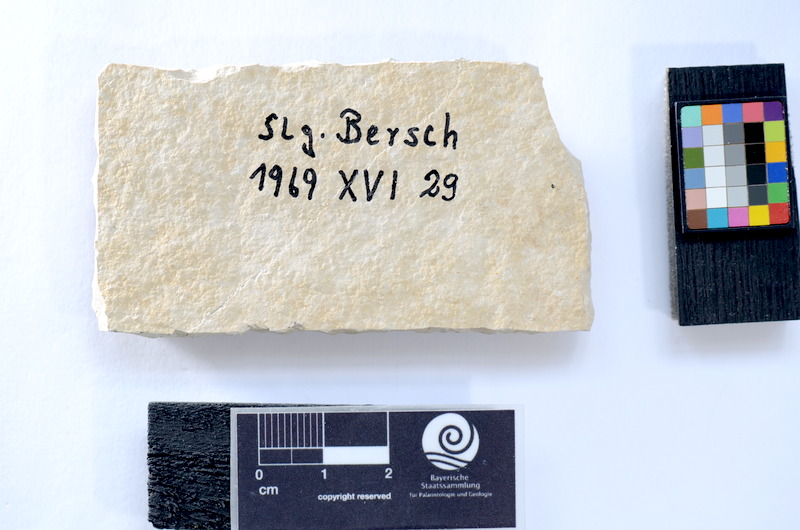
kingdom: Animalia
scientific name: Animalia
